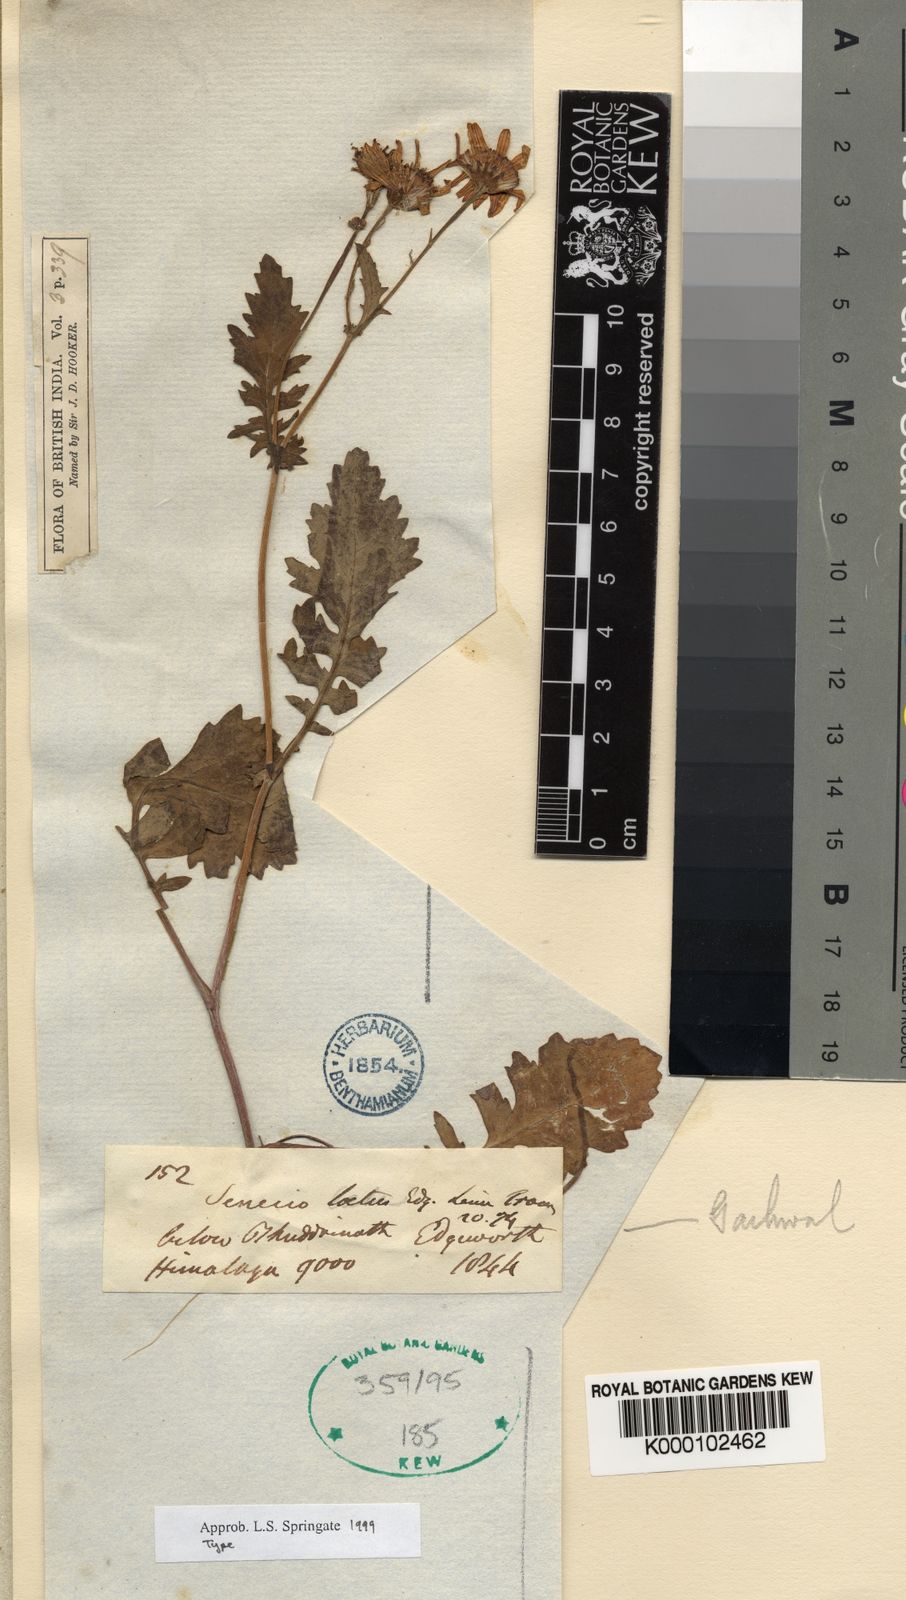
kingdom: Plantae
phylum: Tracheophyta
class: Magnoliopsida
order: Asterales
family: Asteraceae
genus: Jacobaea
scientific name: Jacobaea analoga
